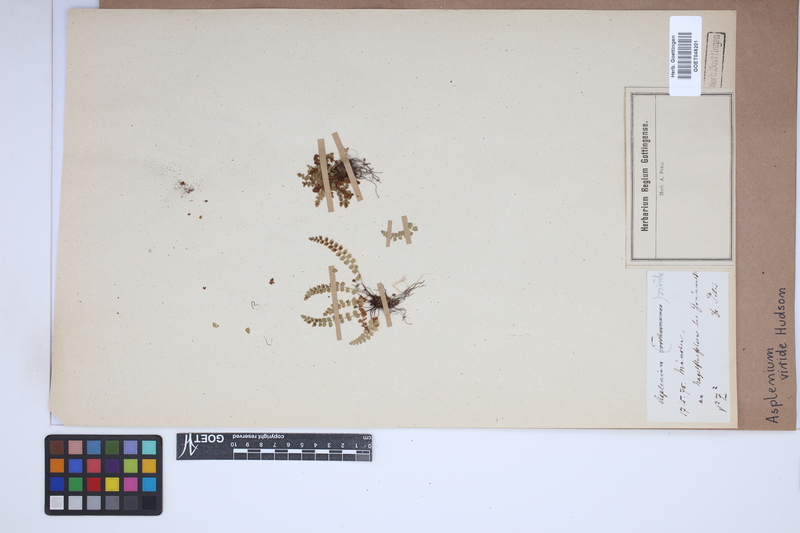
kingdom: Plantae
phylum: Tracheophyta
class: Polypodiopsida
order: Polypodiales
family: Aspleniaceae
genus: Asplenium
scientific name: Asplenium viride
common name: Green spleenwort
